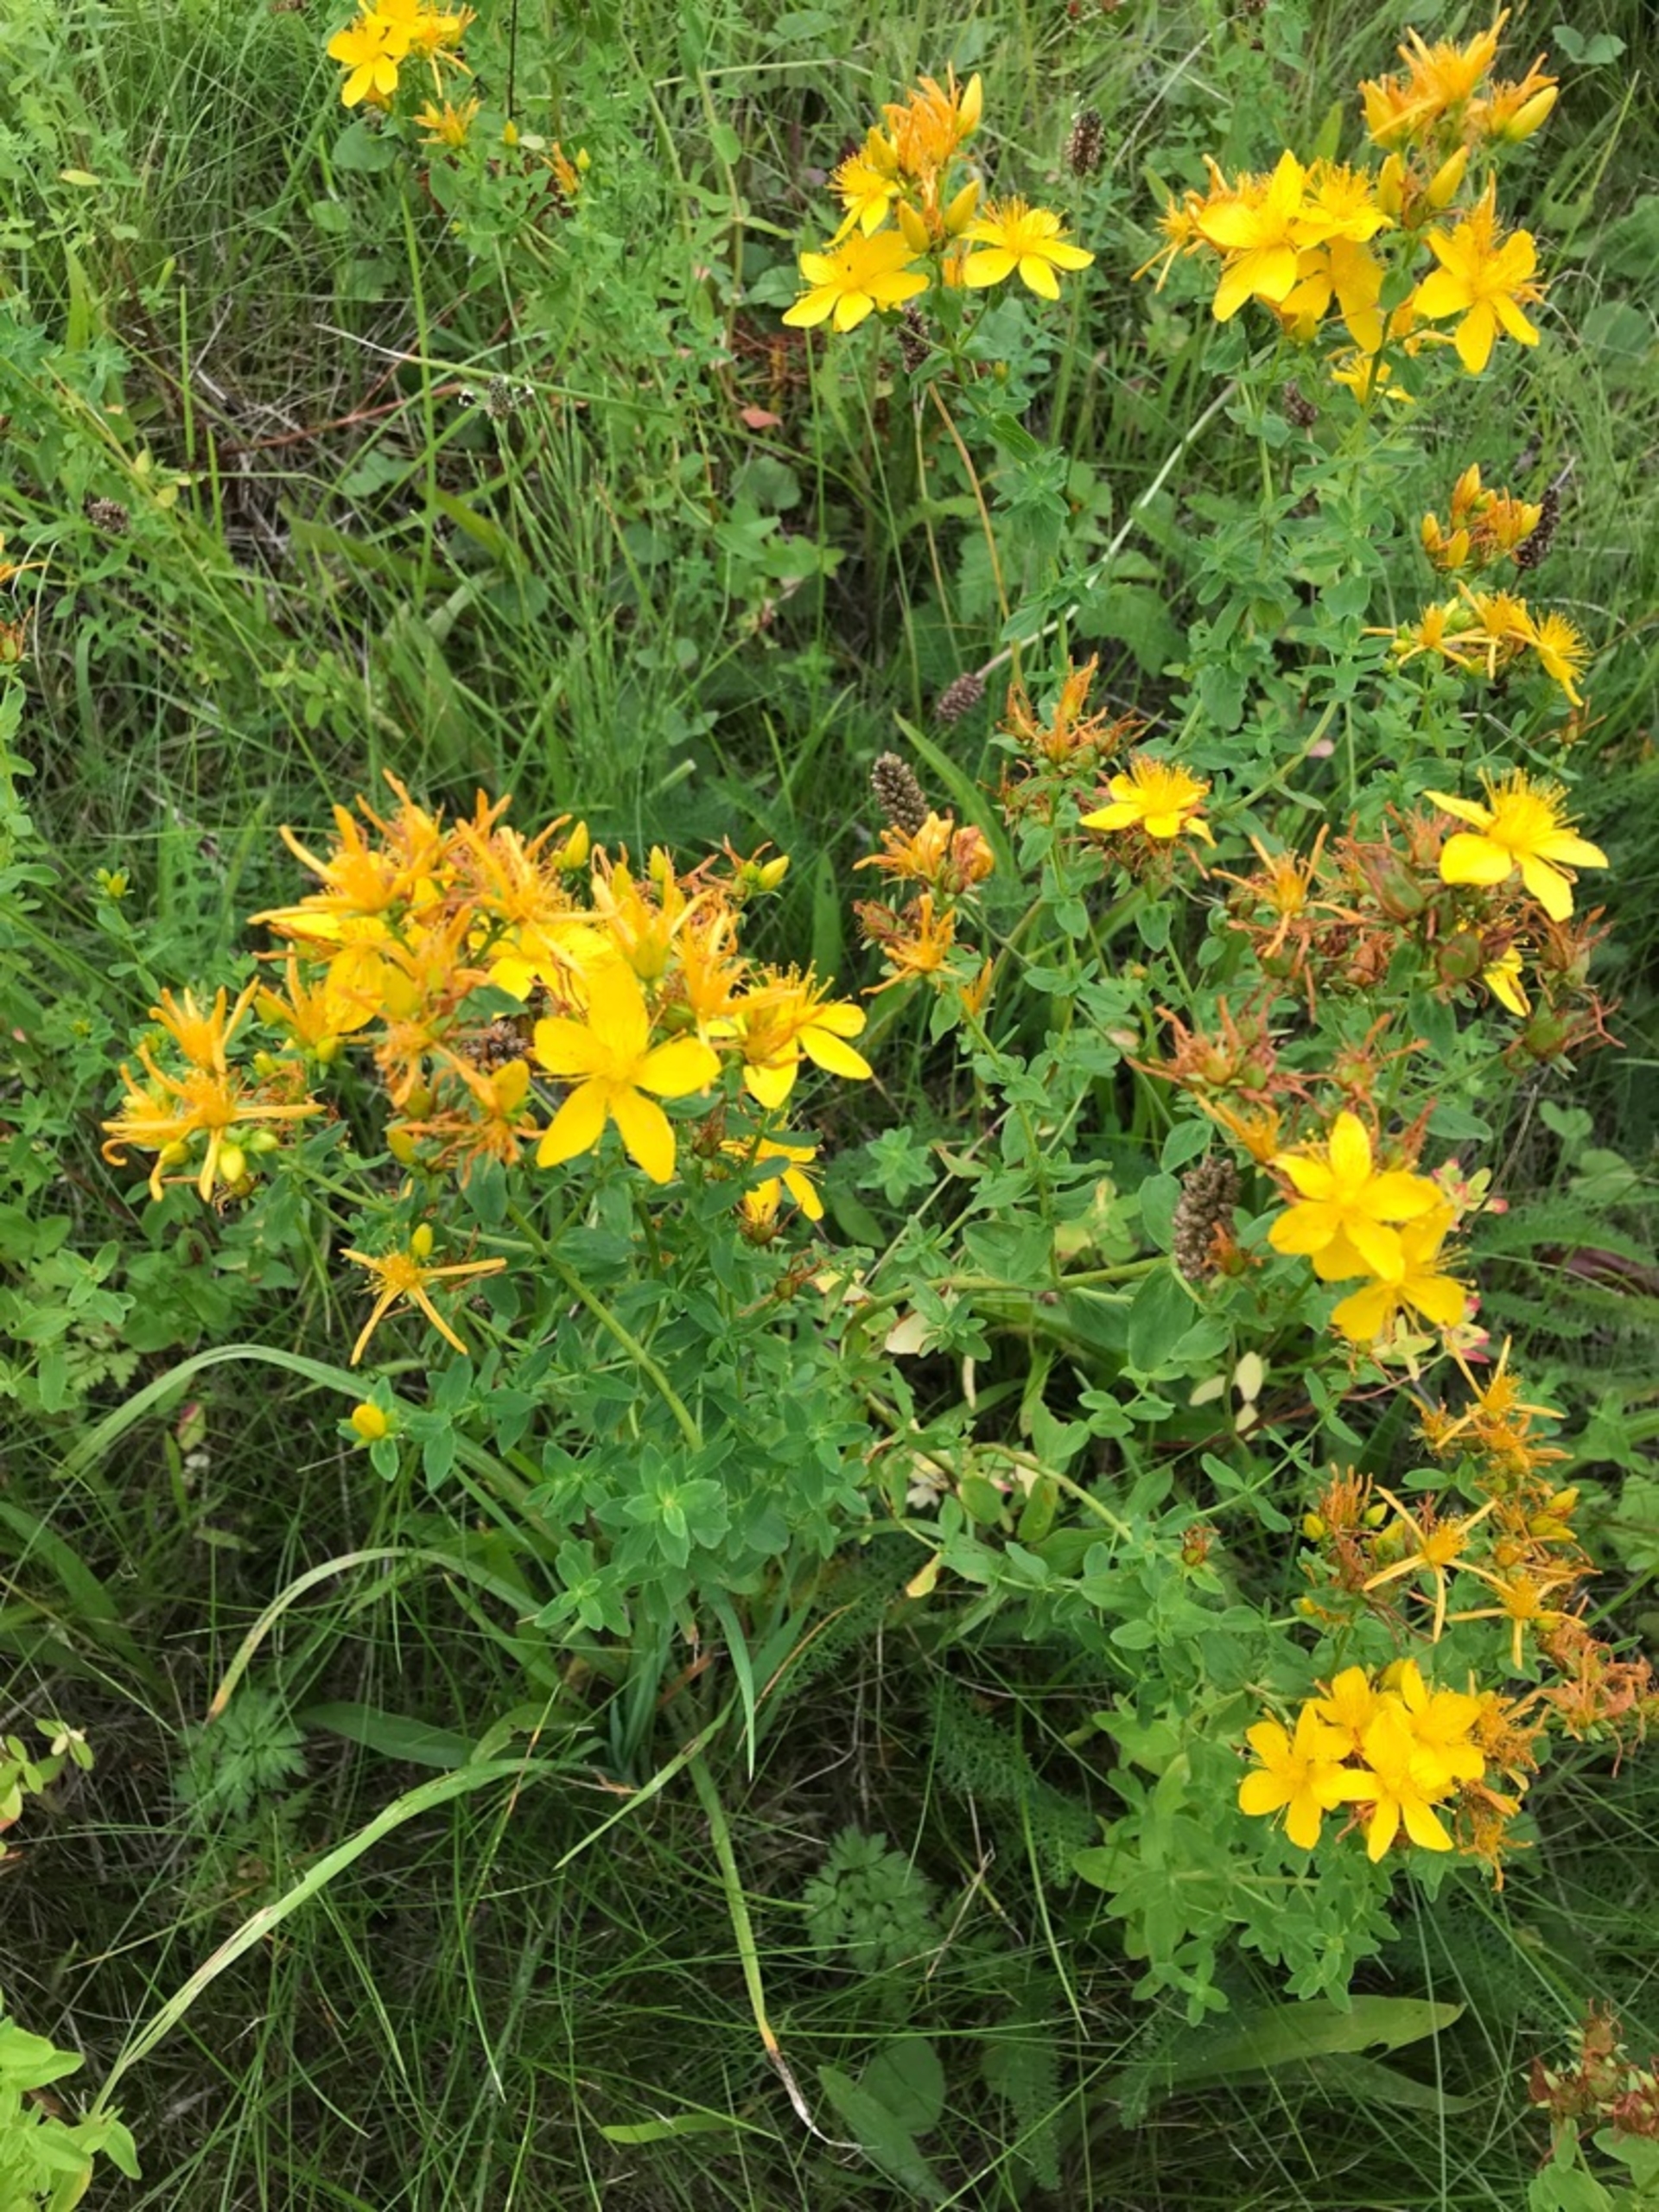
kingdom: Plantae
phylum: Tracheophyta
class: Magnoliopsida
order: Malpighiales
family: Hypericaceae
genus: Hypericum
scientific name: Hypericum perforatum
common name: Prikbladet perikon
